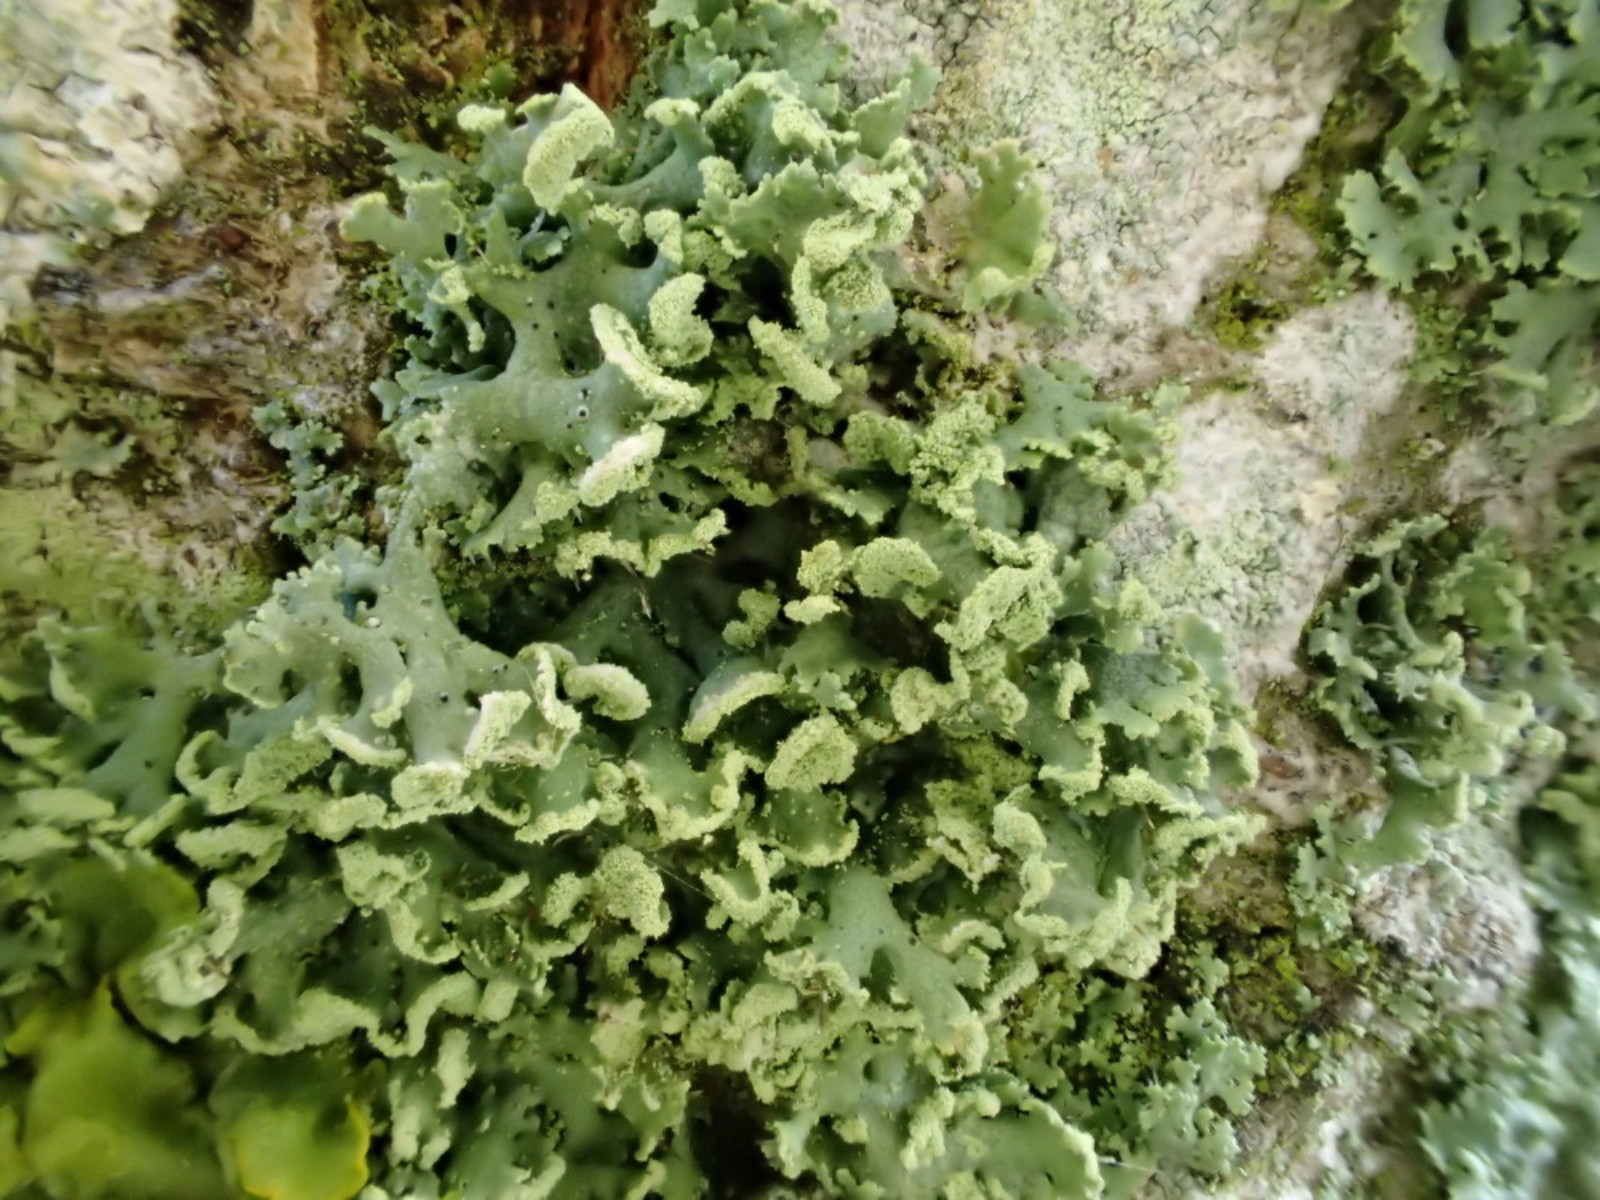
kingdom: Fungi
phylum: Ascomycota
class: Lecanoromycetes
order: Caliciales
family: Physciaceae
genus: Physcia
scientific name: Physcia tenella
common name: spæd rosetlav
